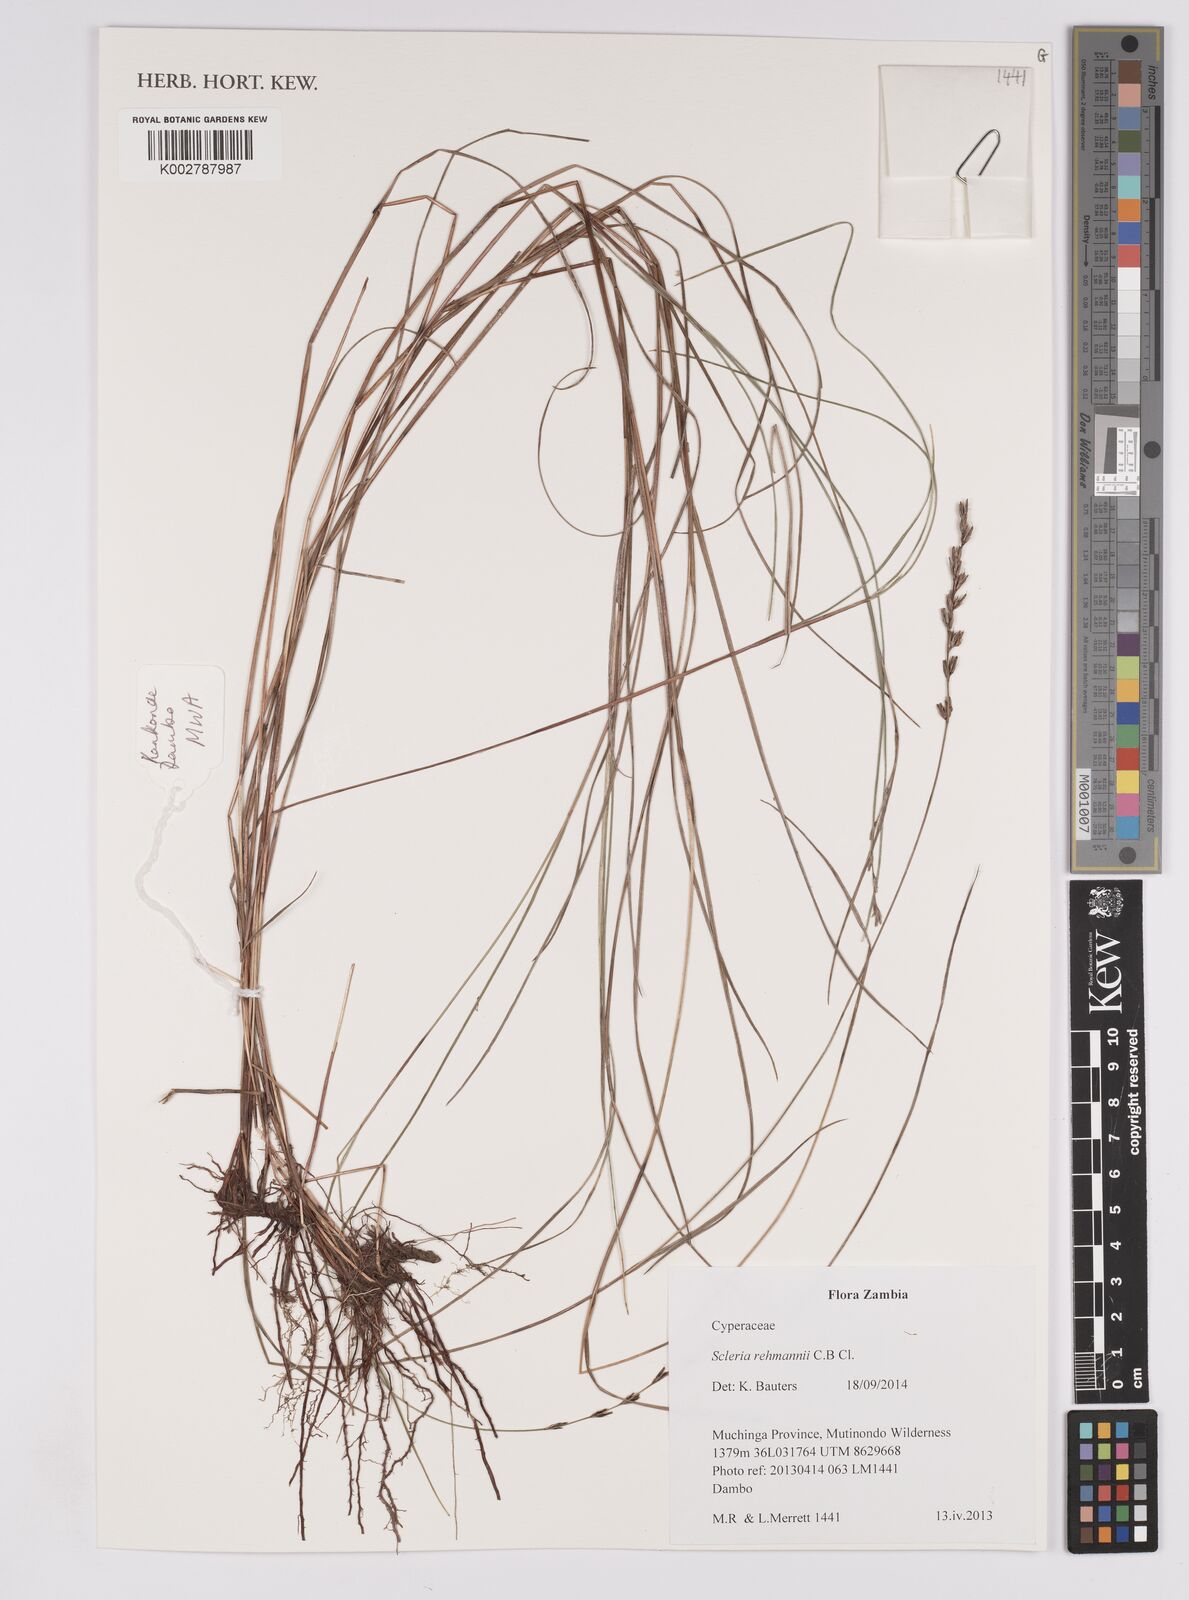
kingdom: Plantae
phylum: Tracheophyta
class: Liliopsida
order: Poales
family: Cyperaceae
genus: Scleria
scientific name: Scleria rehmannii
